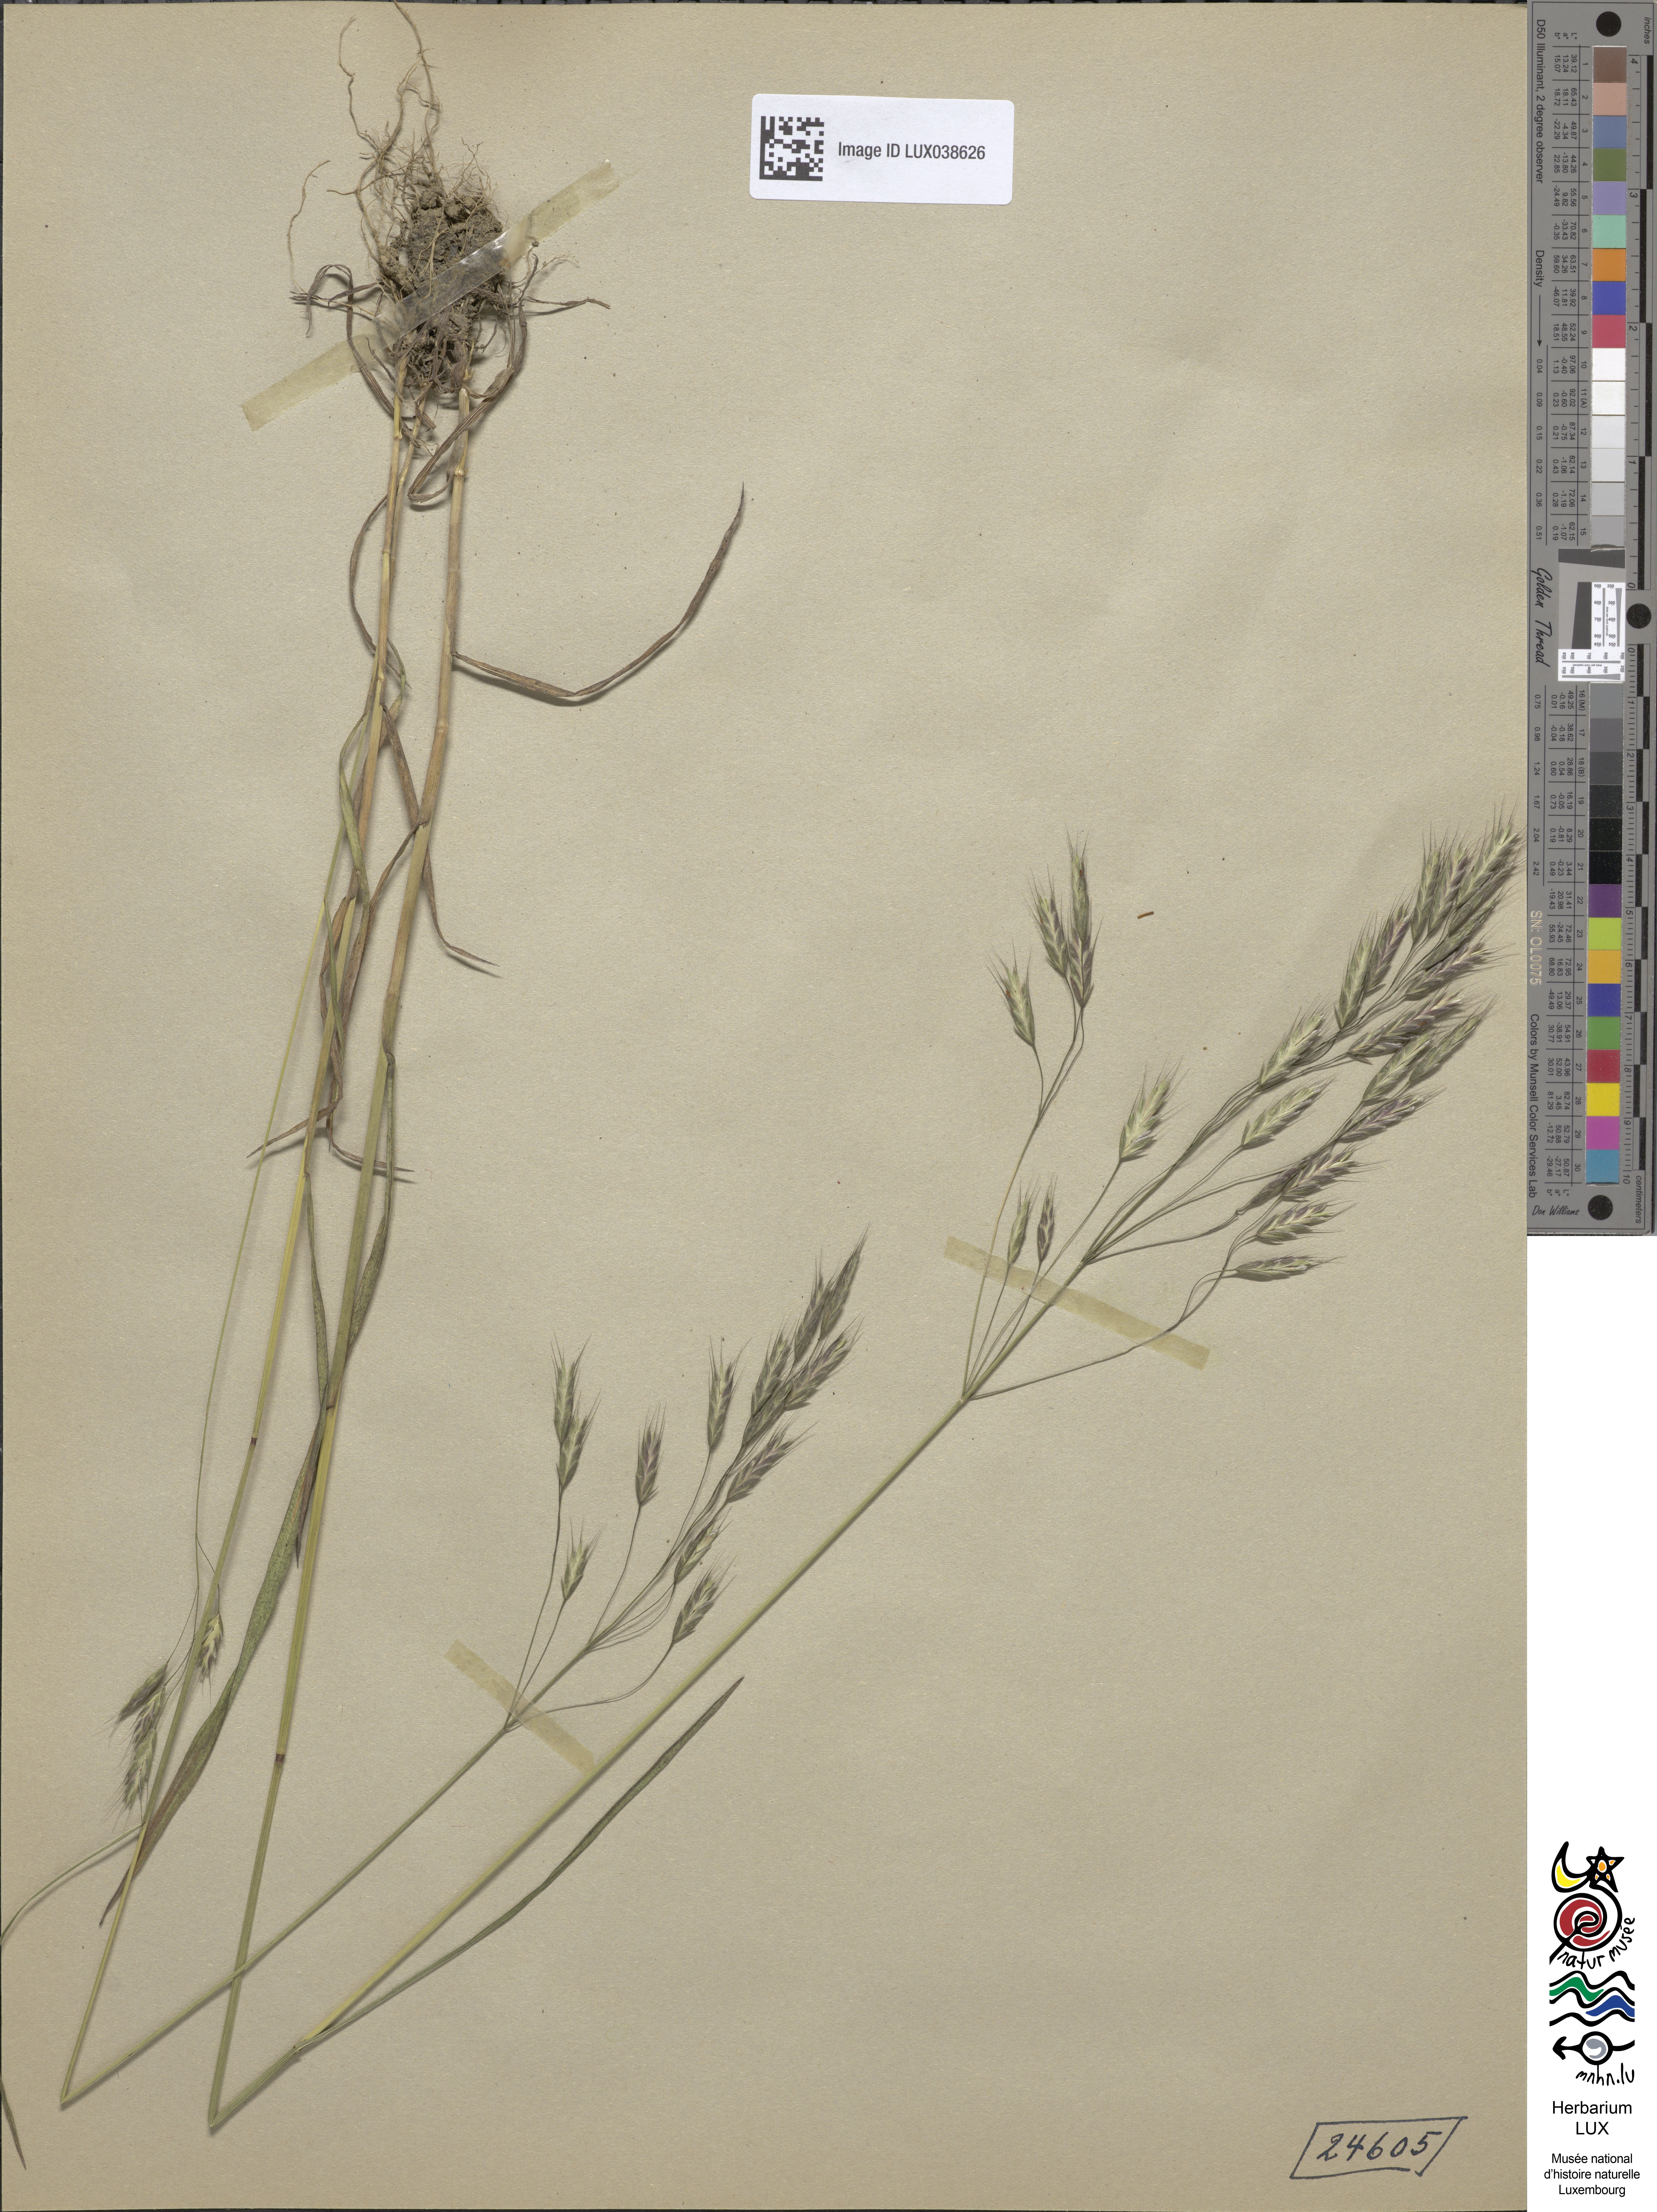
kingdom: Plantae
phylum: Tracheophyta
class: Liliopsida
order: Poales
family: Poaceae
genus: Bromus
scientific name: Bromus arvensis
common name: Field brome
